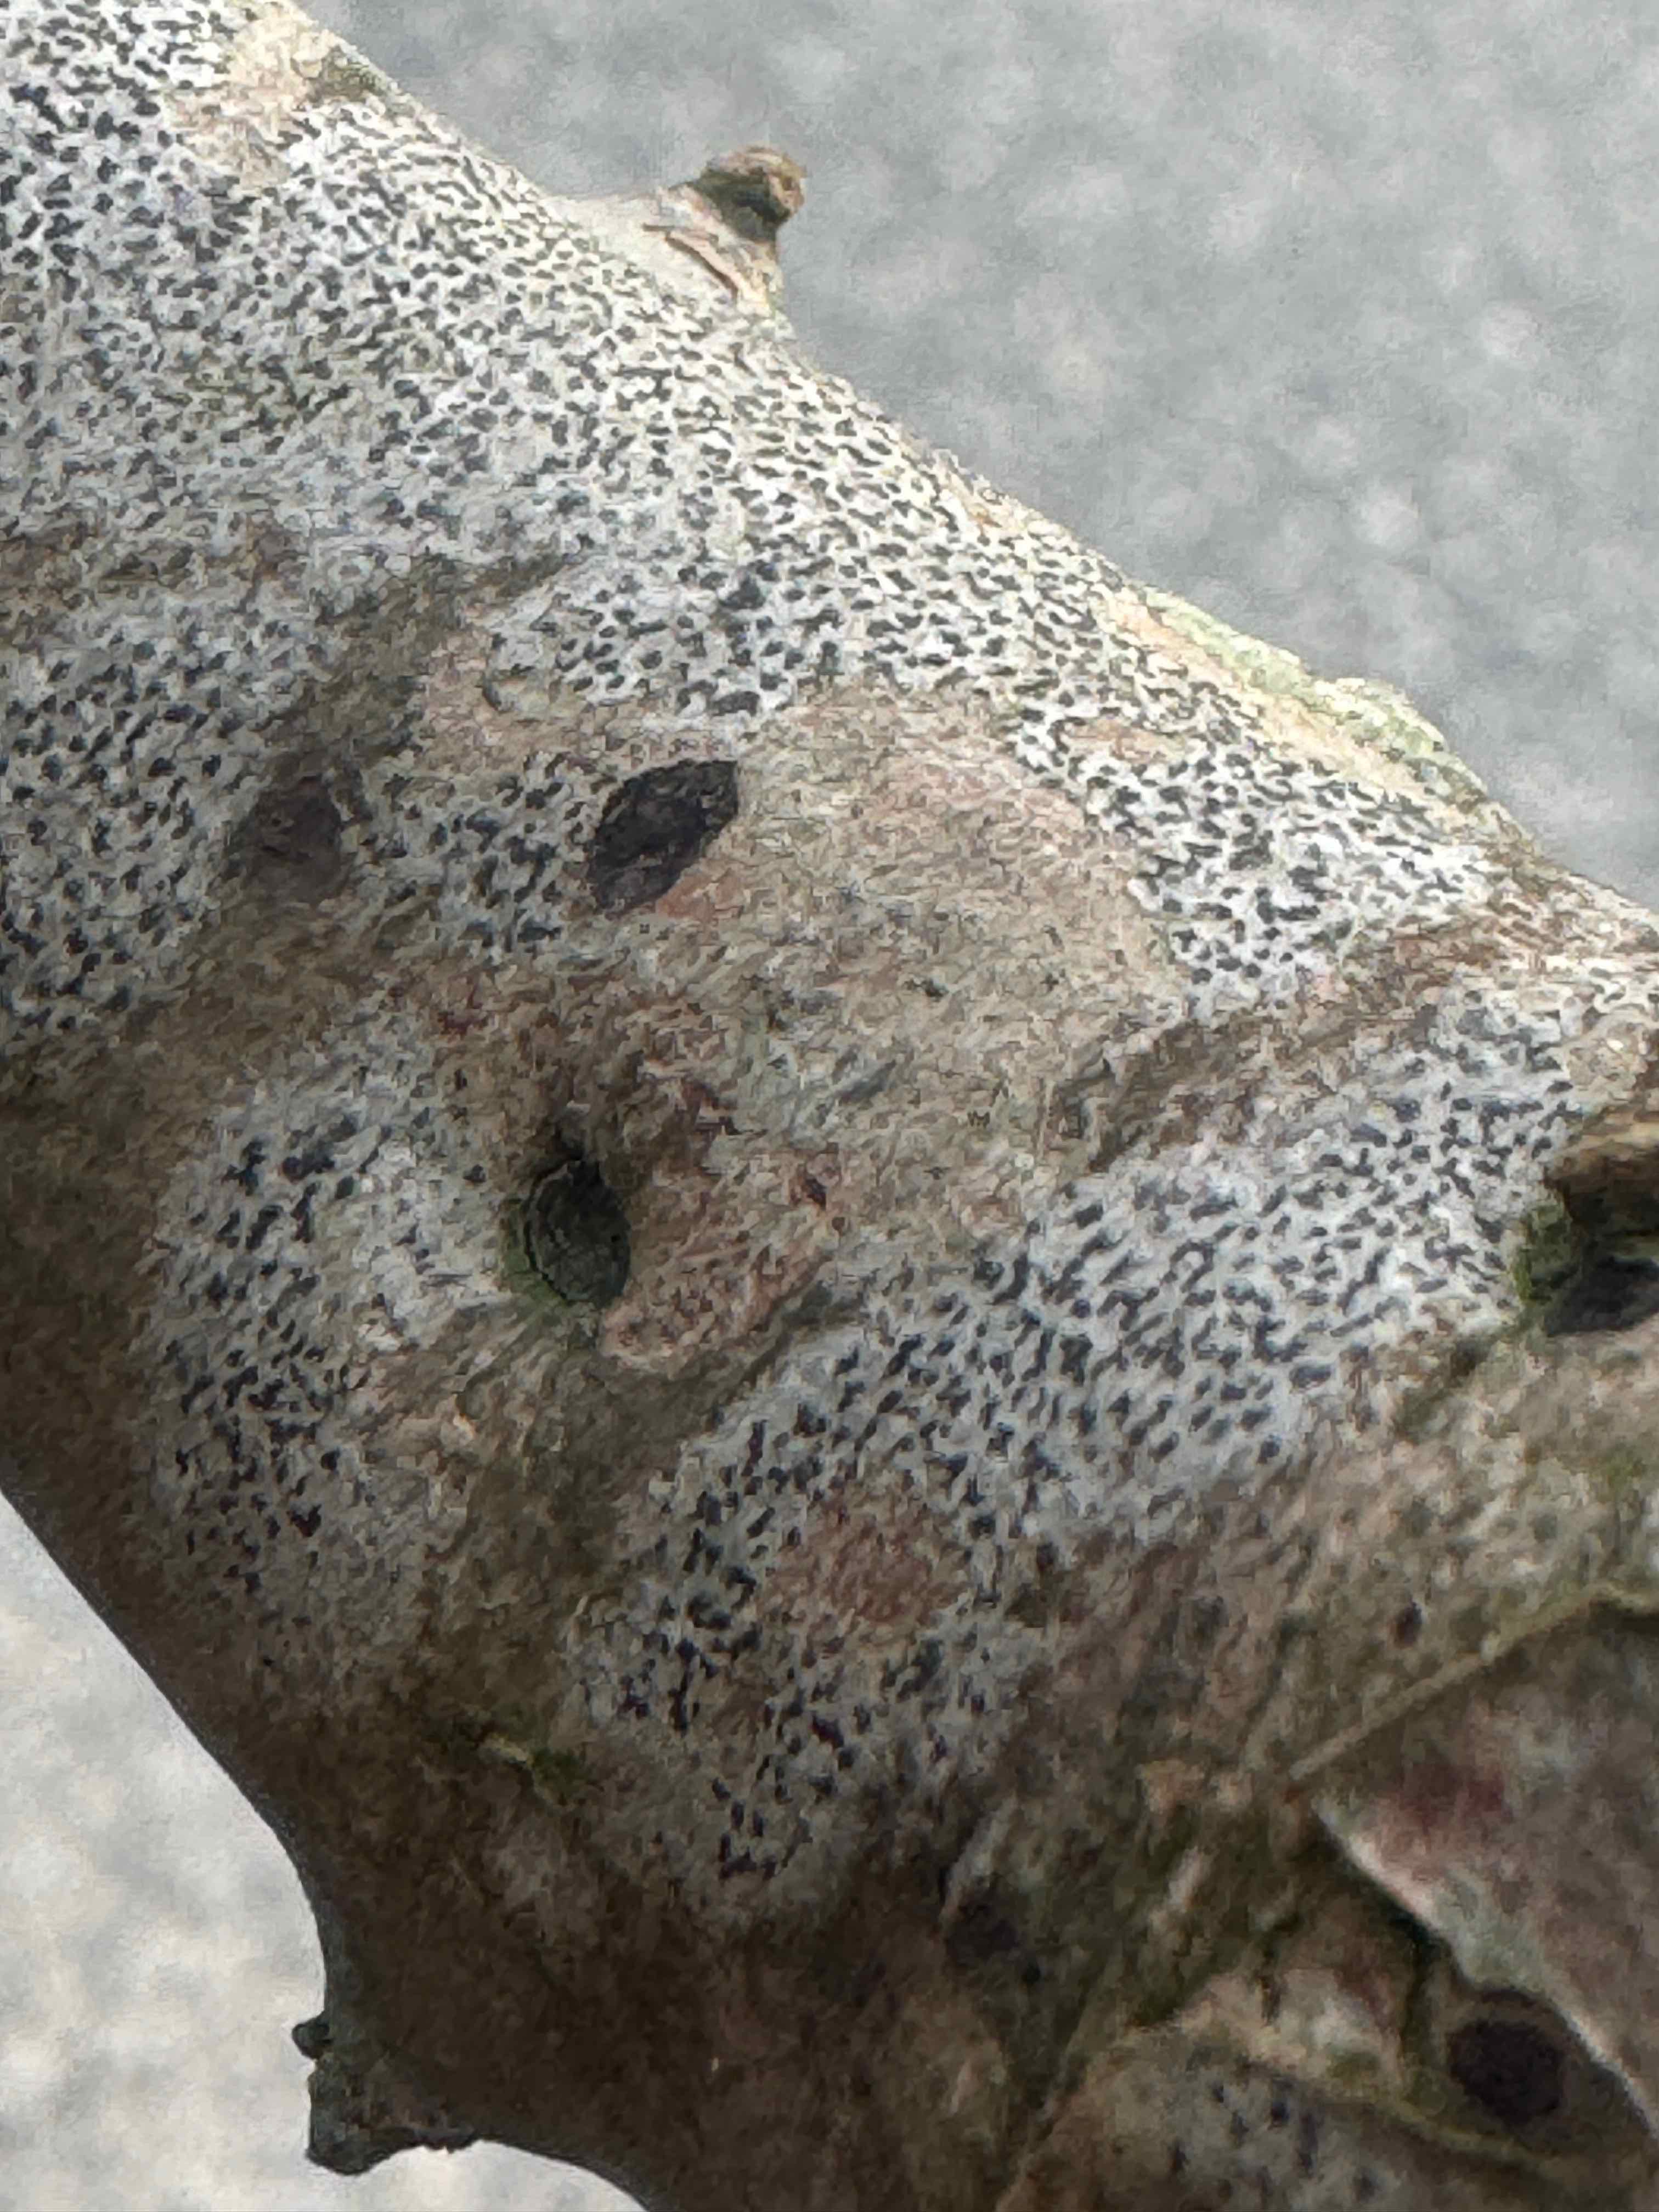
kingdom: Fungi
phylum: Ascomycota
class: Arthoniomycetes
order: Arthoniales
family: Arthoniaceae
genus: Arthonia
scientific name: Arthonia radiata
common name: stjerne-pletlav
